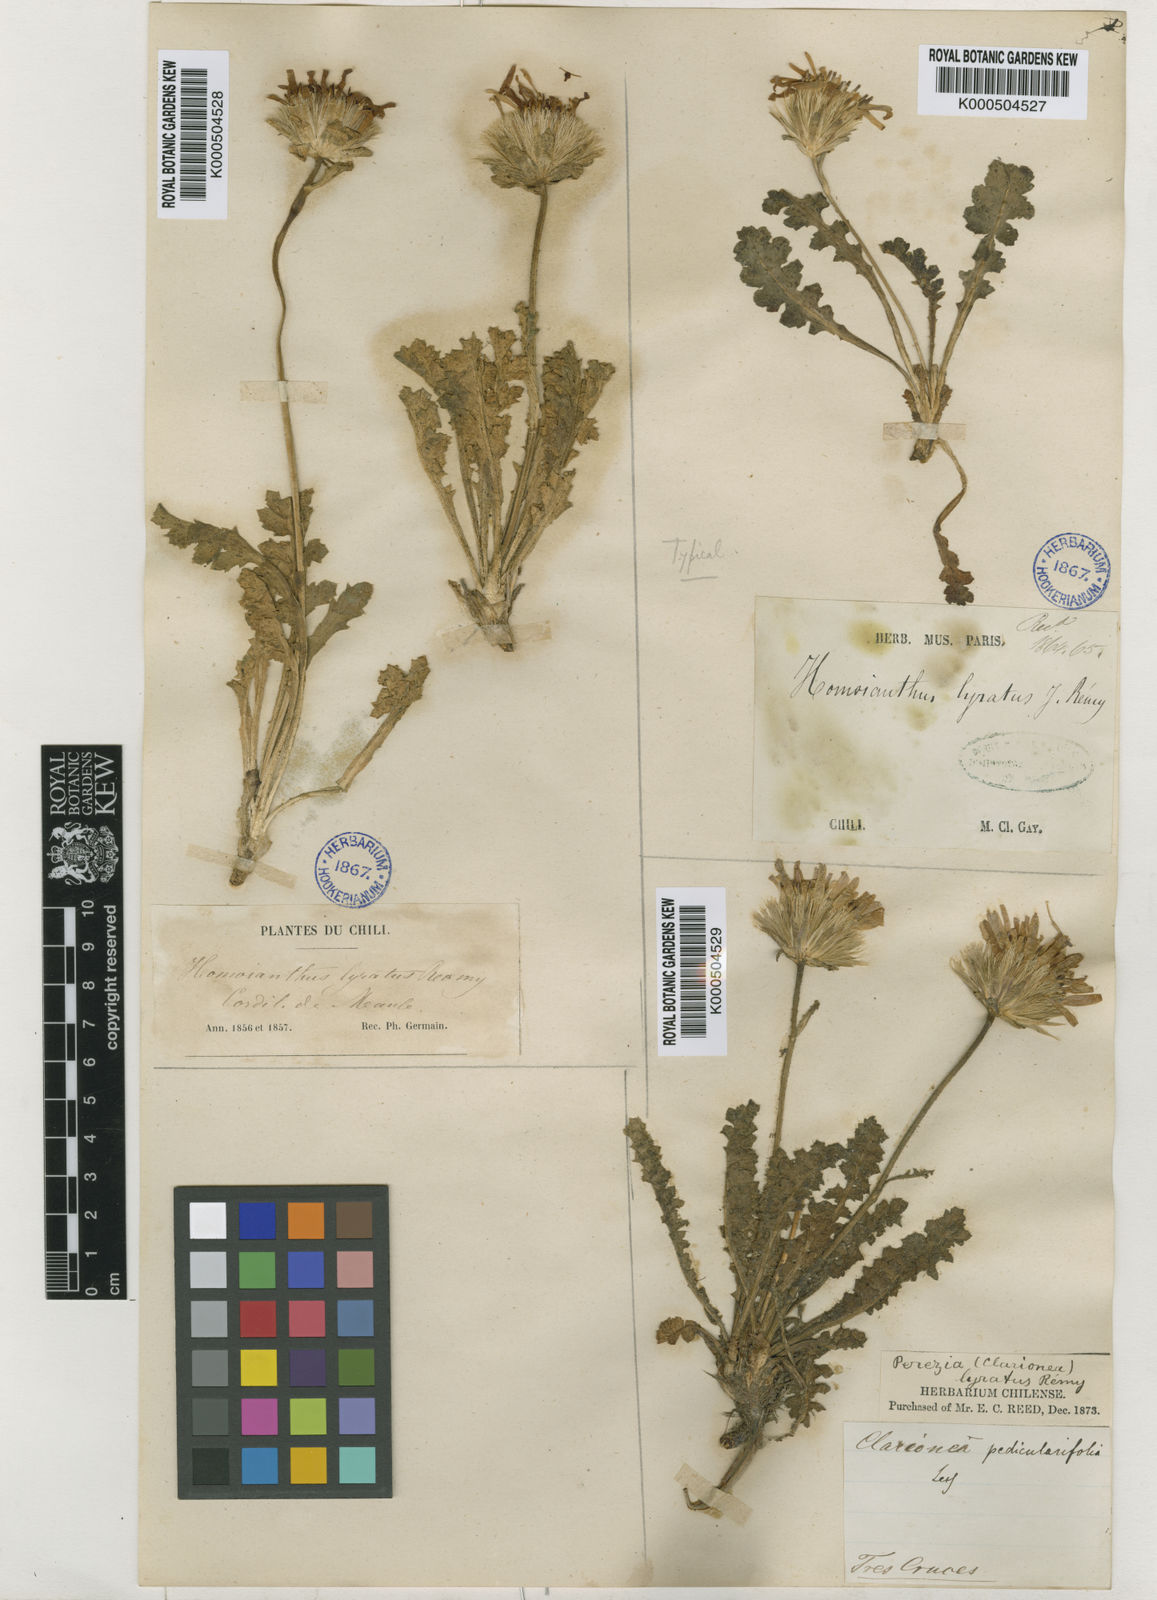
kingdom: Plantae
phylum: Tracheophyta
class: Magnoliopsida
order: Asterales
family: Asteraceae
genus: Perezia
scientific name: Perezia lyrata
